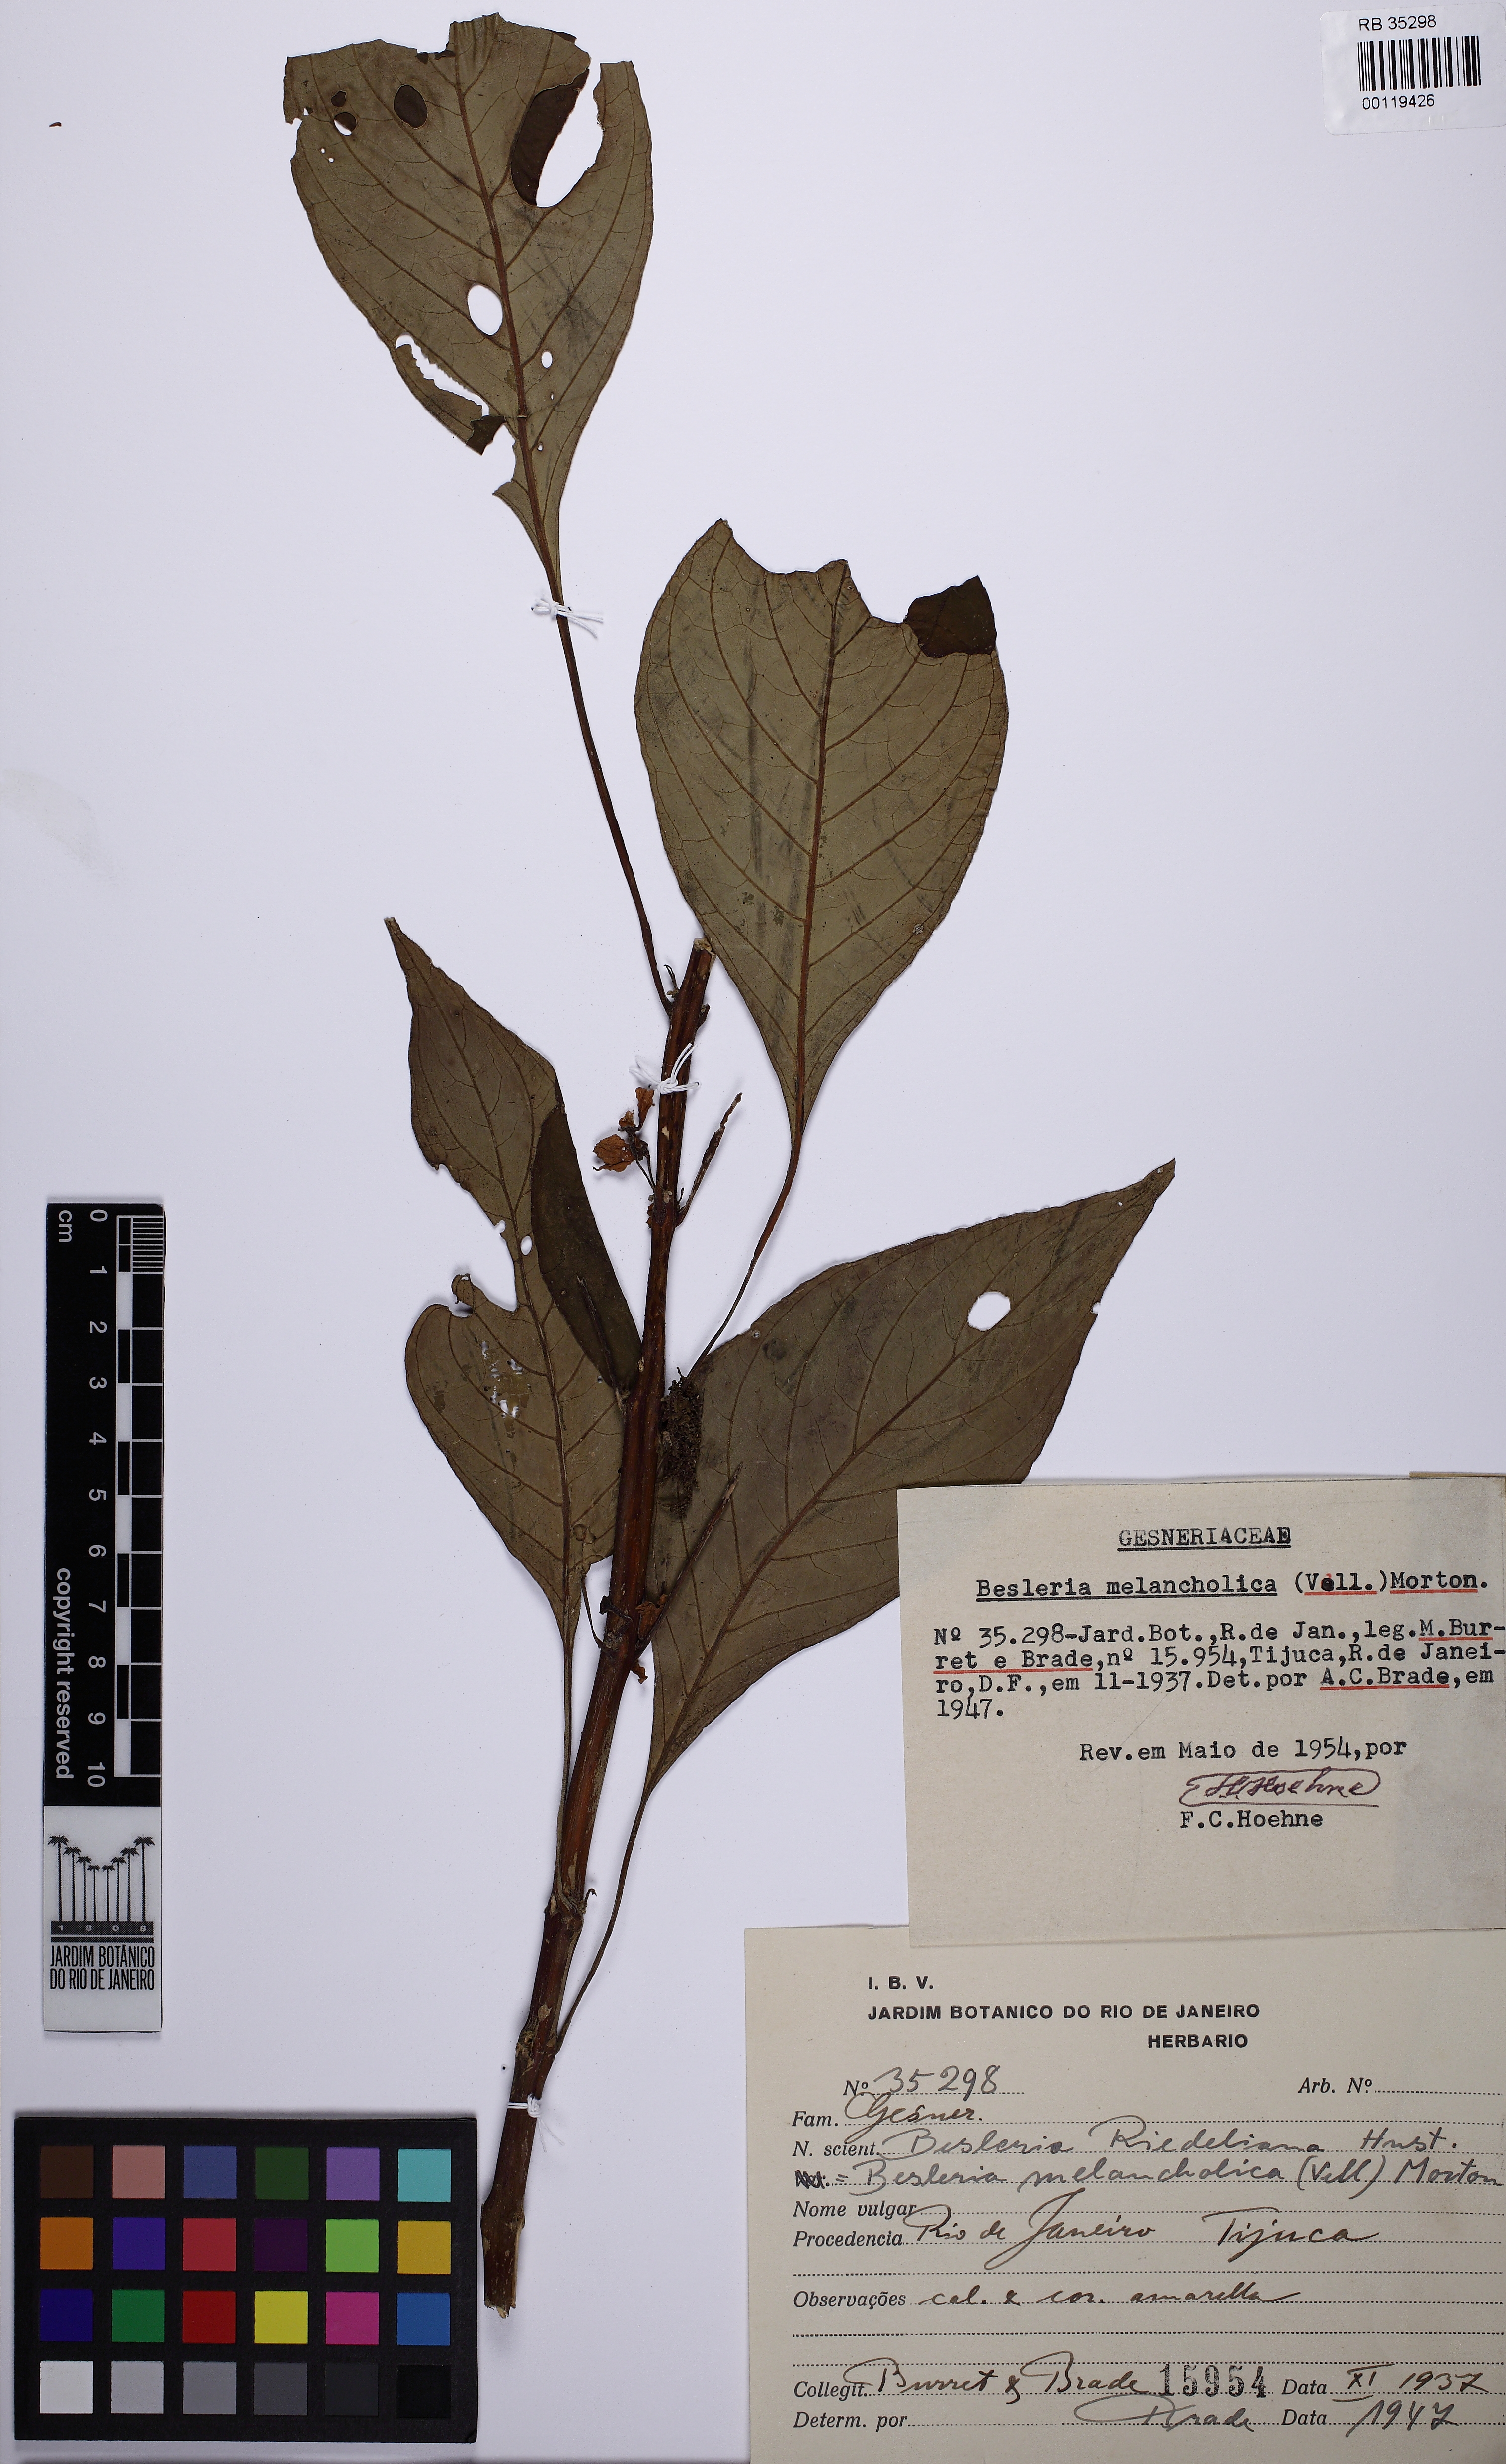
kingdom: Plantae
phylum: Tracheophyta
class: Magnoliopsida
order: Lamiales
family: Gesneriaceae
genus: Besleria
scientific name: Besleria melancholica
